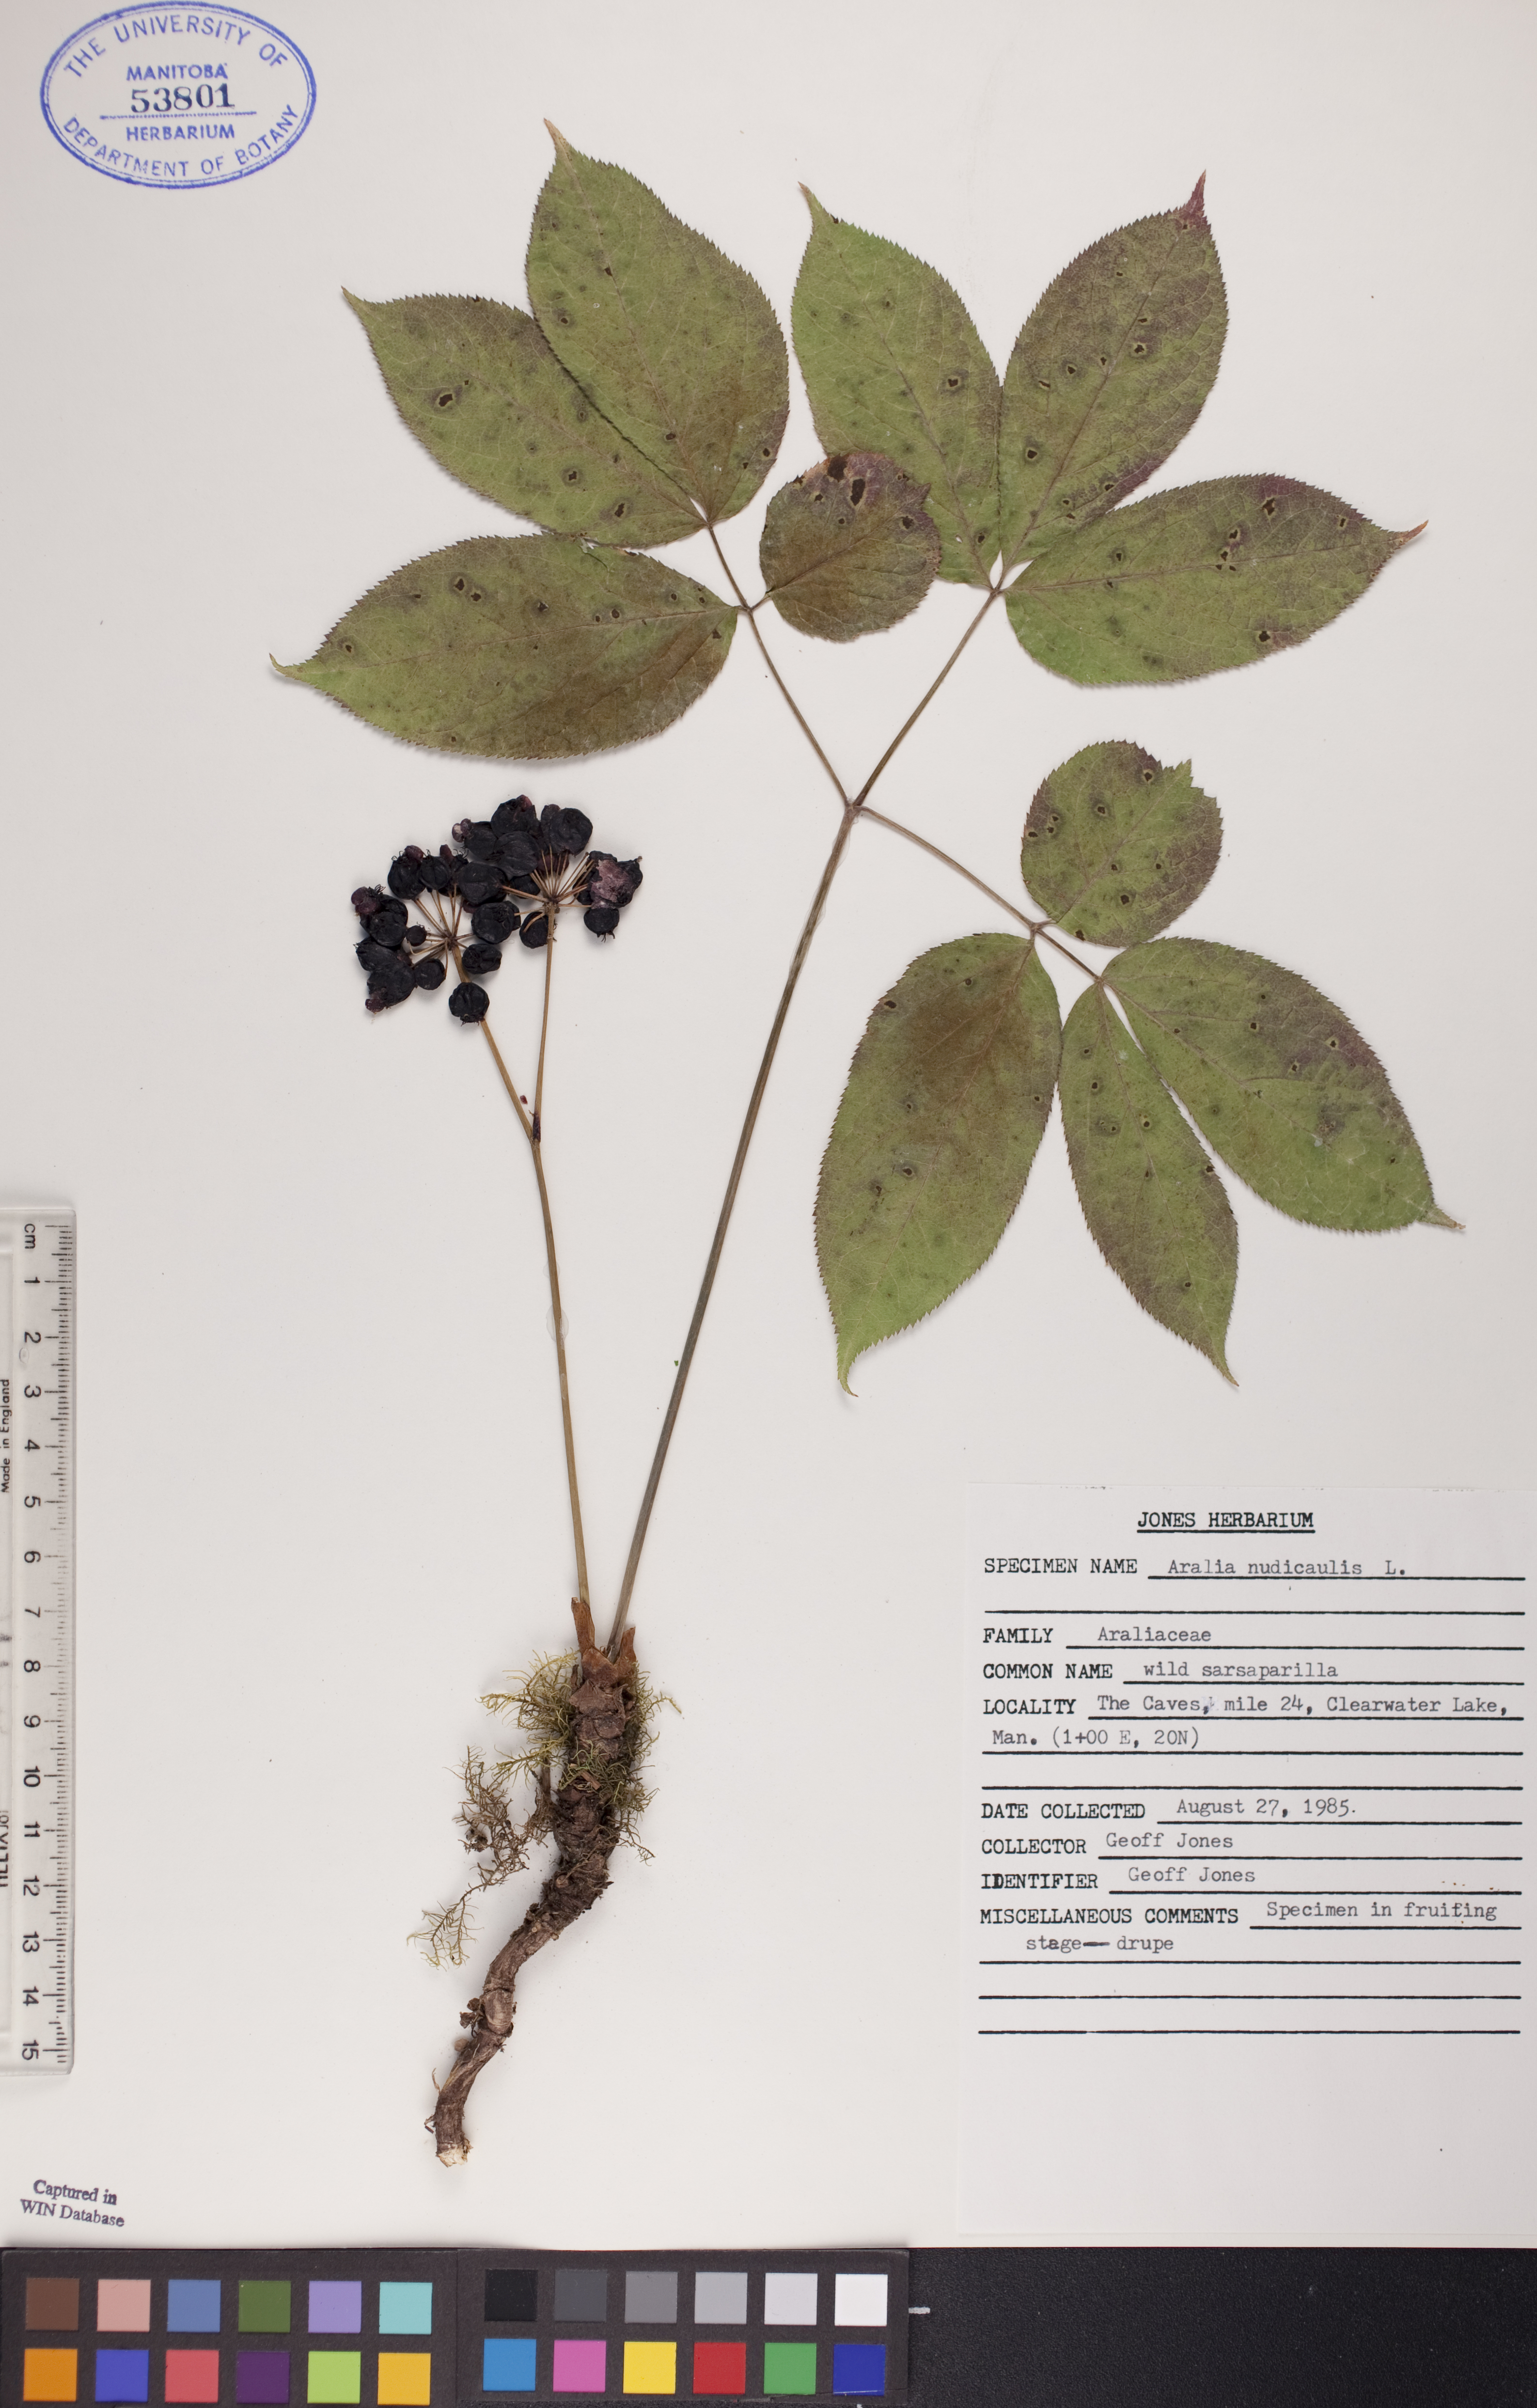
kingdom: Plantae
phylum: Tracheophyta
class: Magnoliopsida
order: Apiales
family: Araliaceae
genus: Aralia
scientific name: Aralia nudicaulis
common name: Wild sarsaparilla
